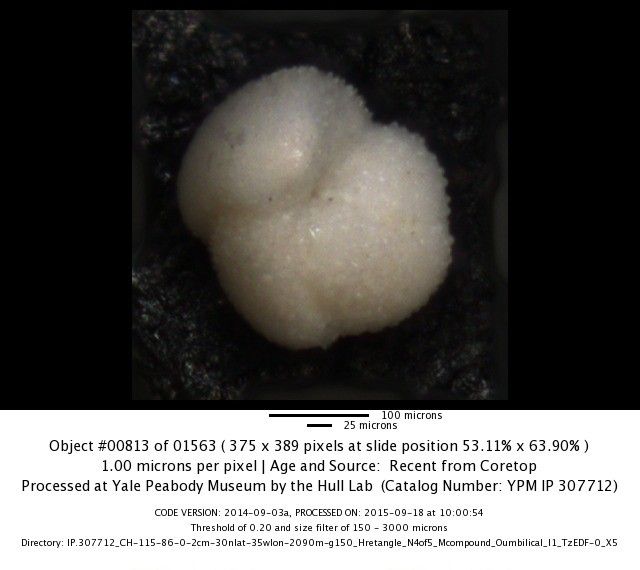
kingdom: Chromista
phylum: Foraminifera
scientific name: Foraminifera
